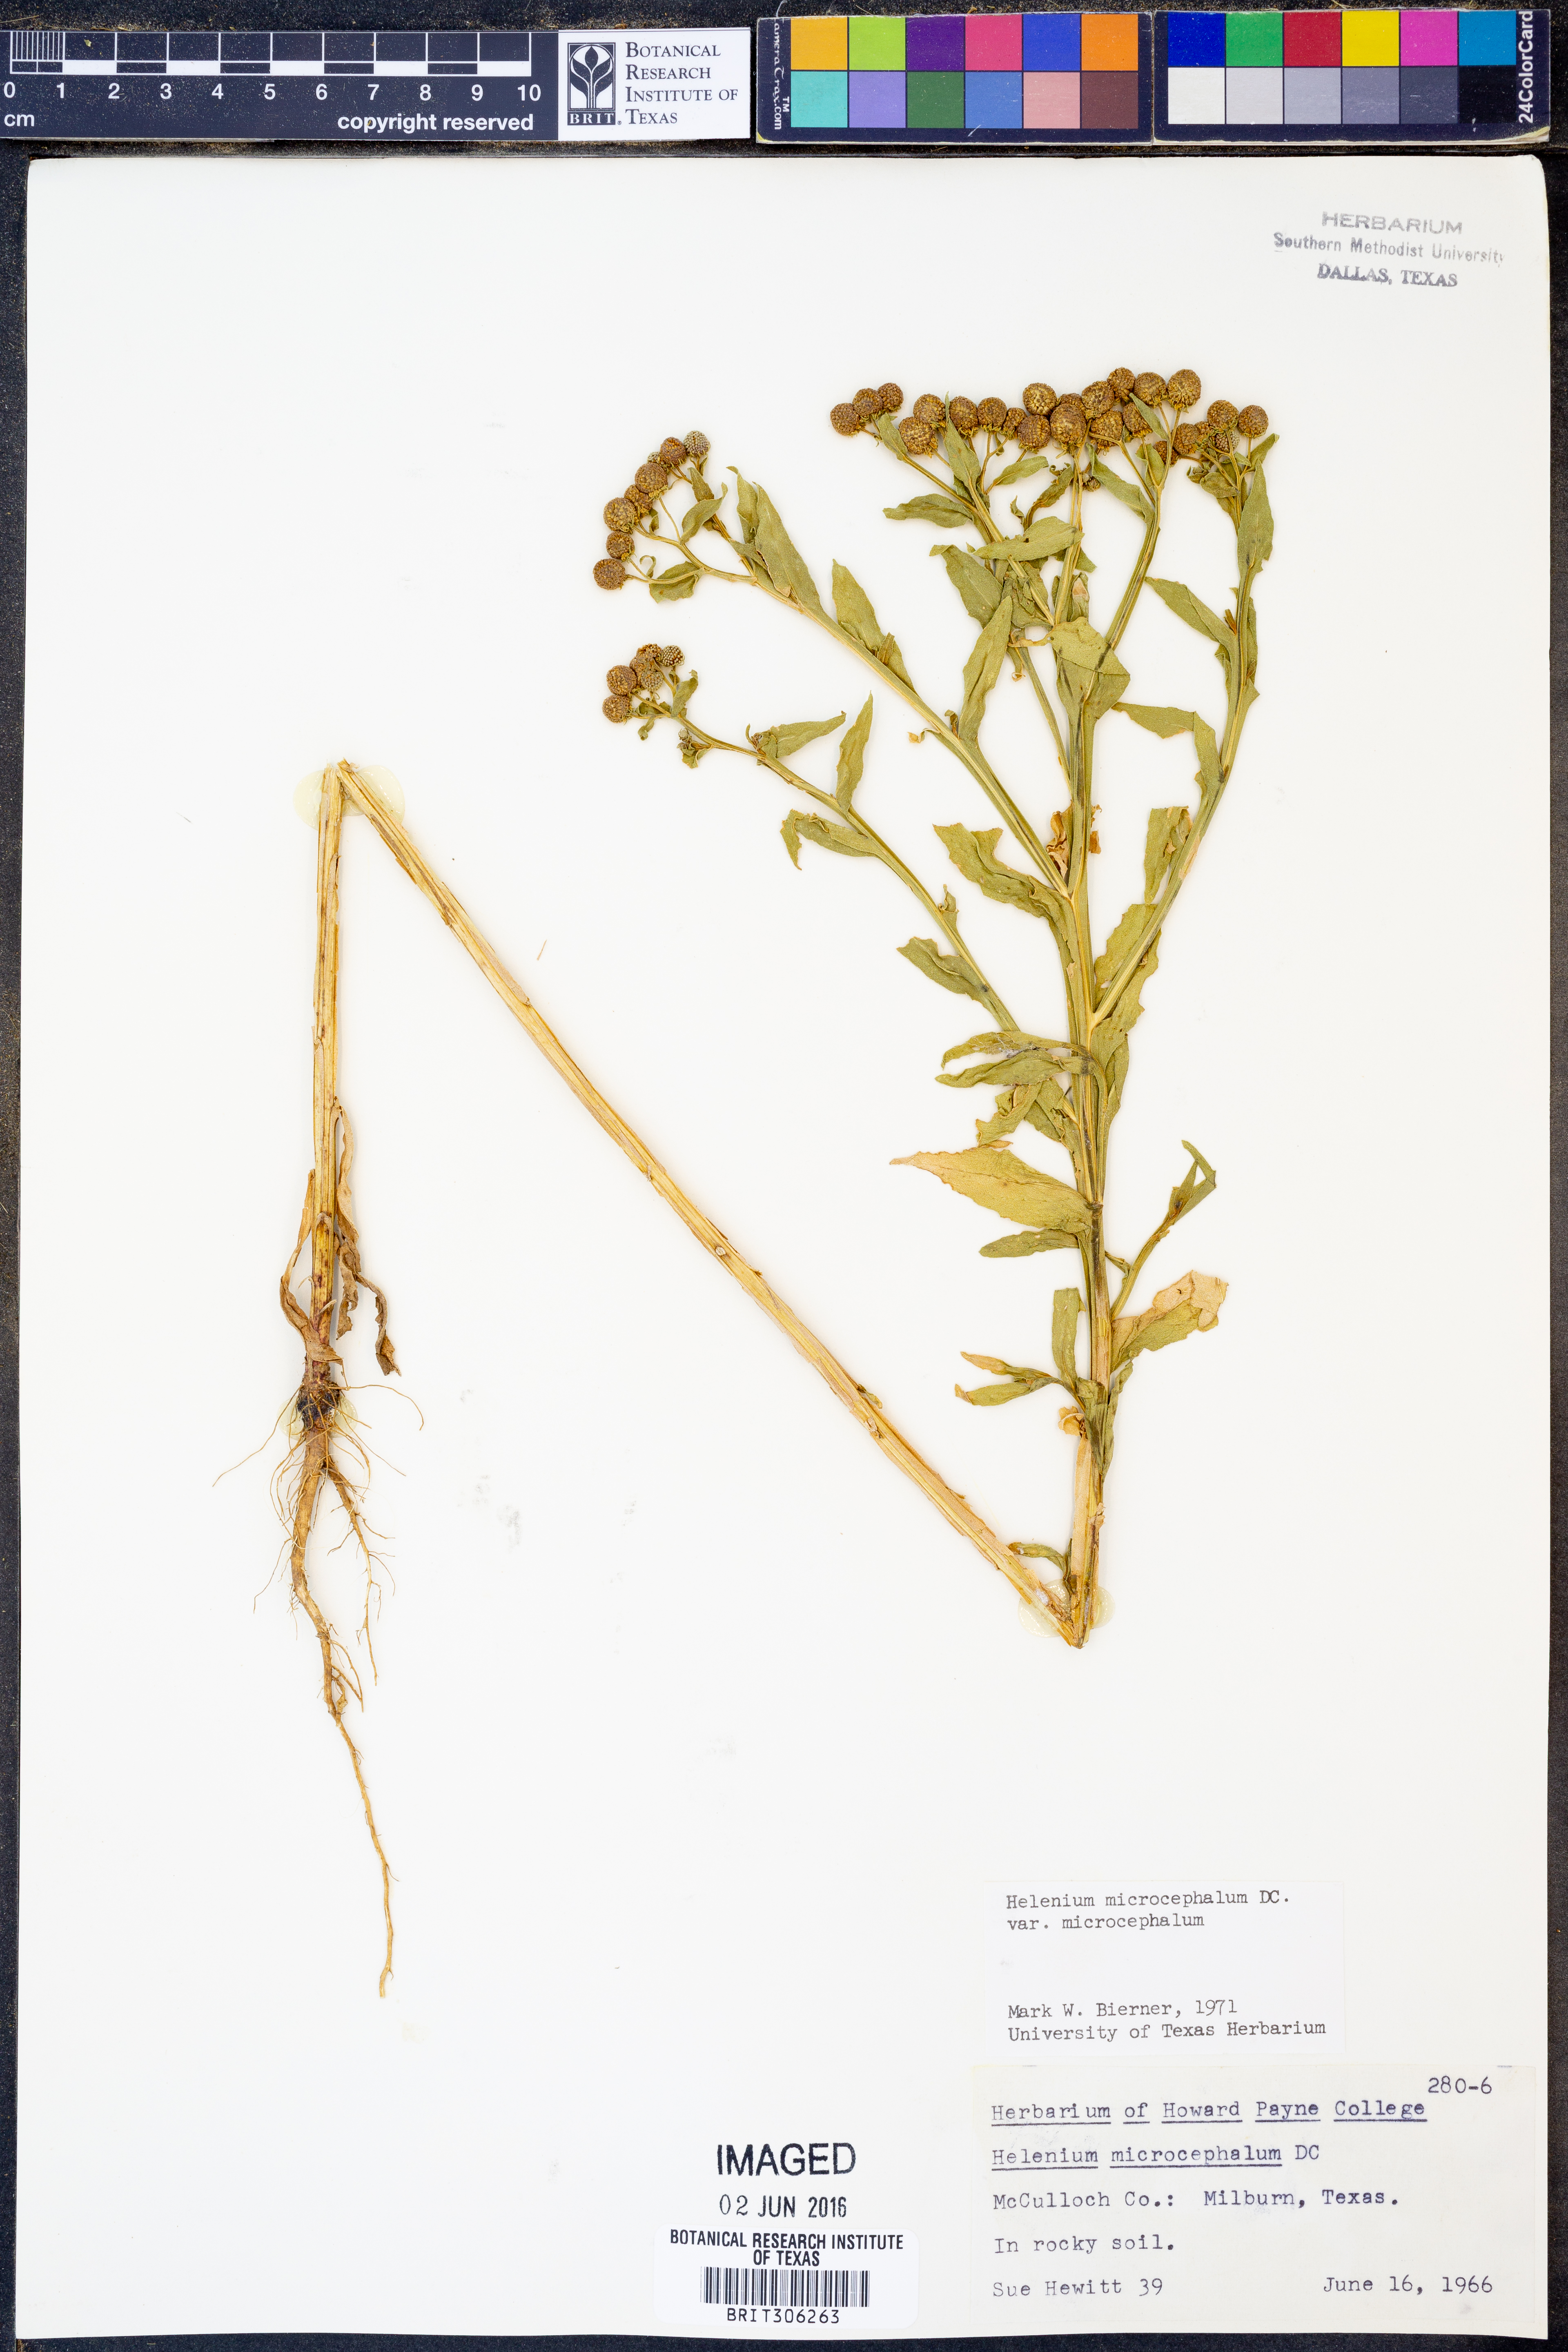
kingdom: Plantae
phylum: Tracheophyta
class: Magnoliopsida
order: Asterales
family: Asteraceae
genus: Helenium
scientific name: Helenium microcephalum
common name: Smallhead sneezeweed
